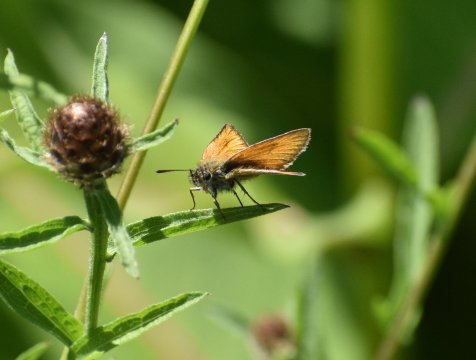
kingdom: Animalia
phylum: Arthropoda
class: Insecta
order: Lepidoptera
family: Hesperiidae
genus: Thymelicus
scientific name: Thymelicus lineola
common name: European Skipper
